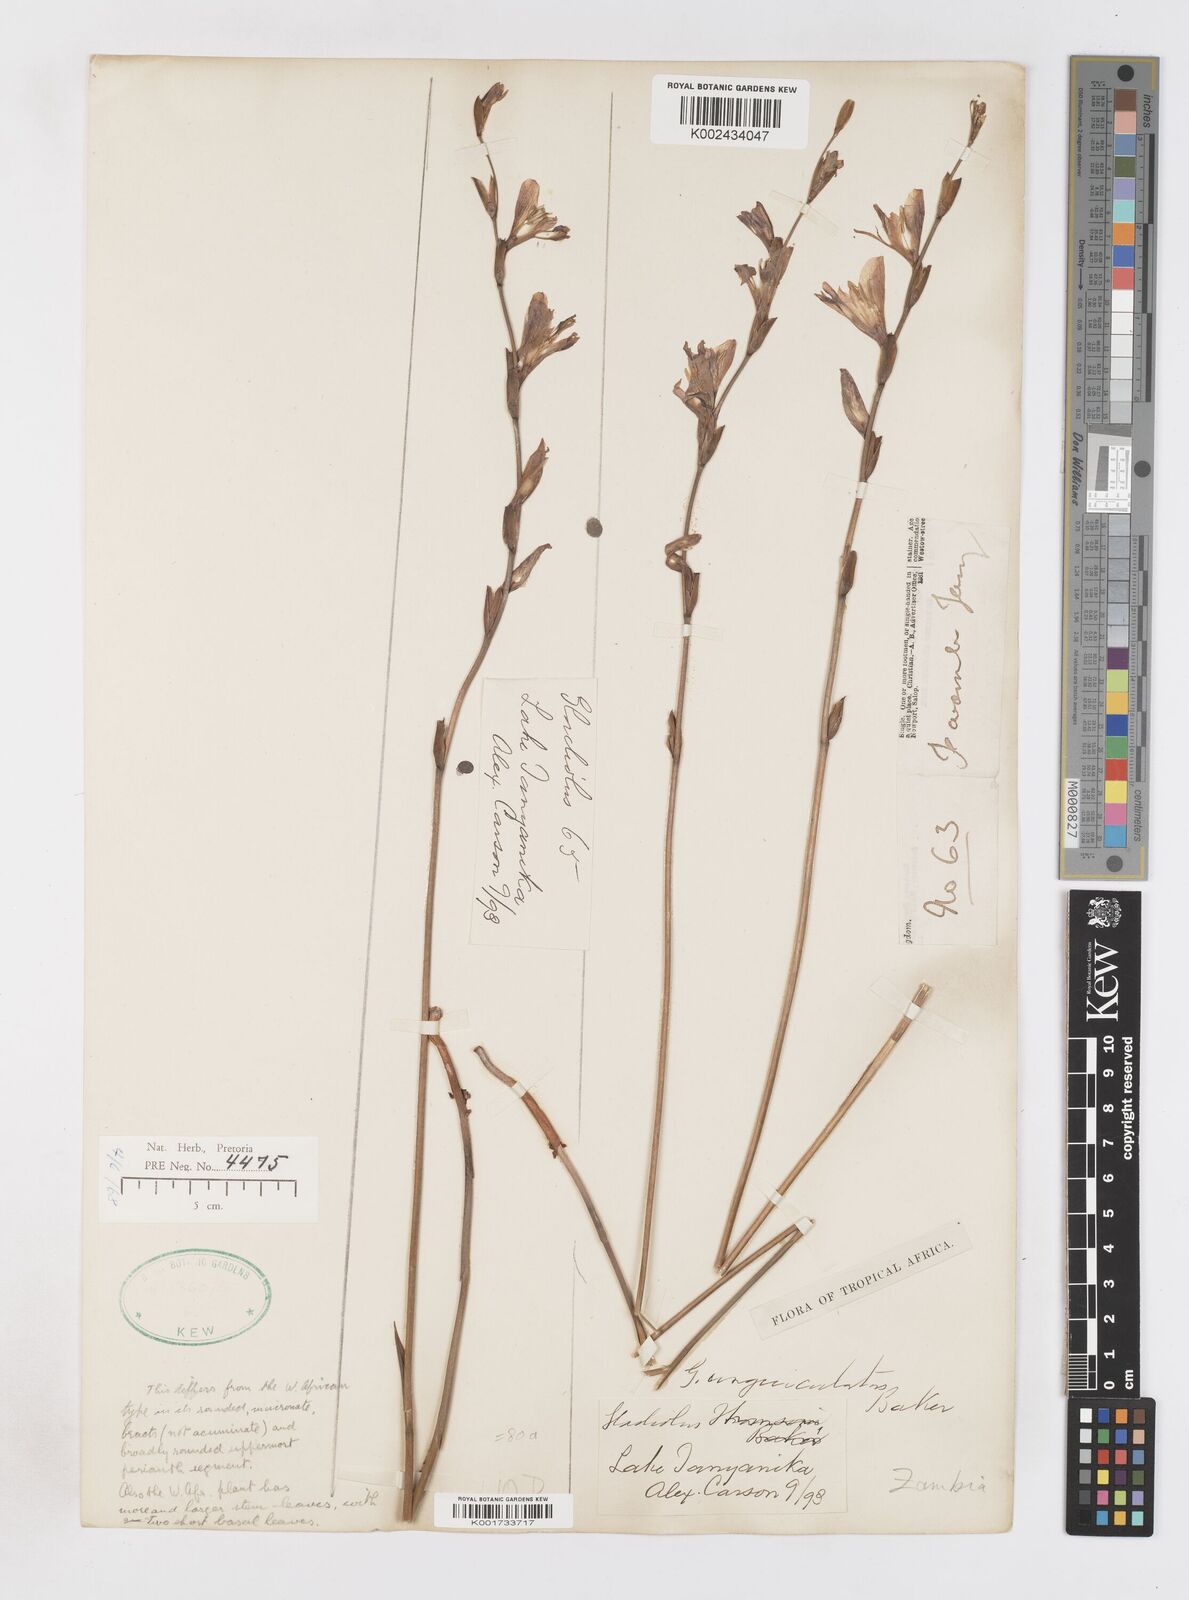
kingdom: Plantae
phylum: Tracheophyta
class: Liliopsida
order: Asparagales
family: Iridaceae
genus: Gladiolus
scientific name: Gladiolus atropurpureus
